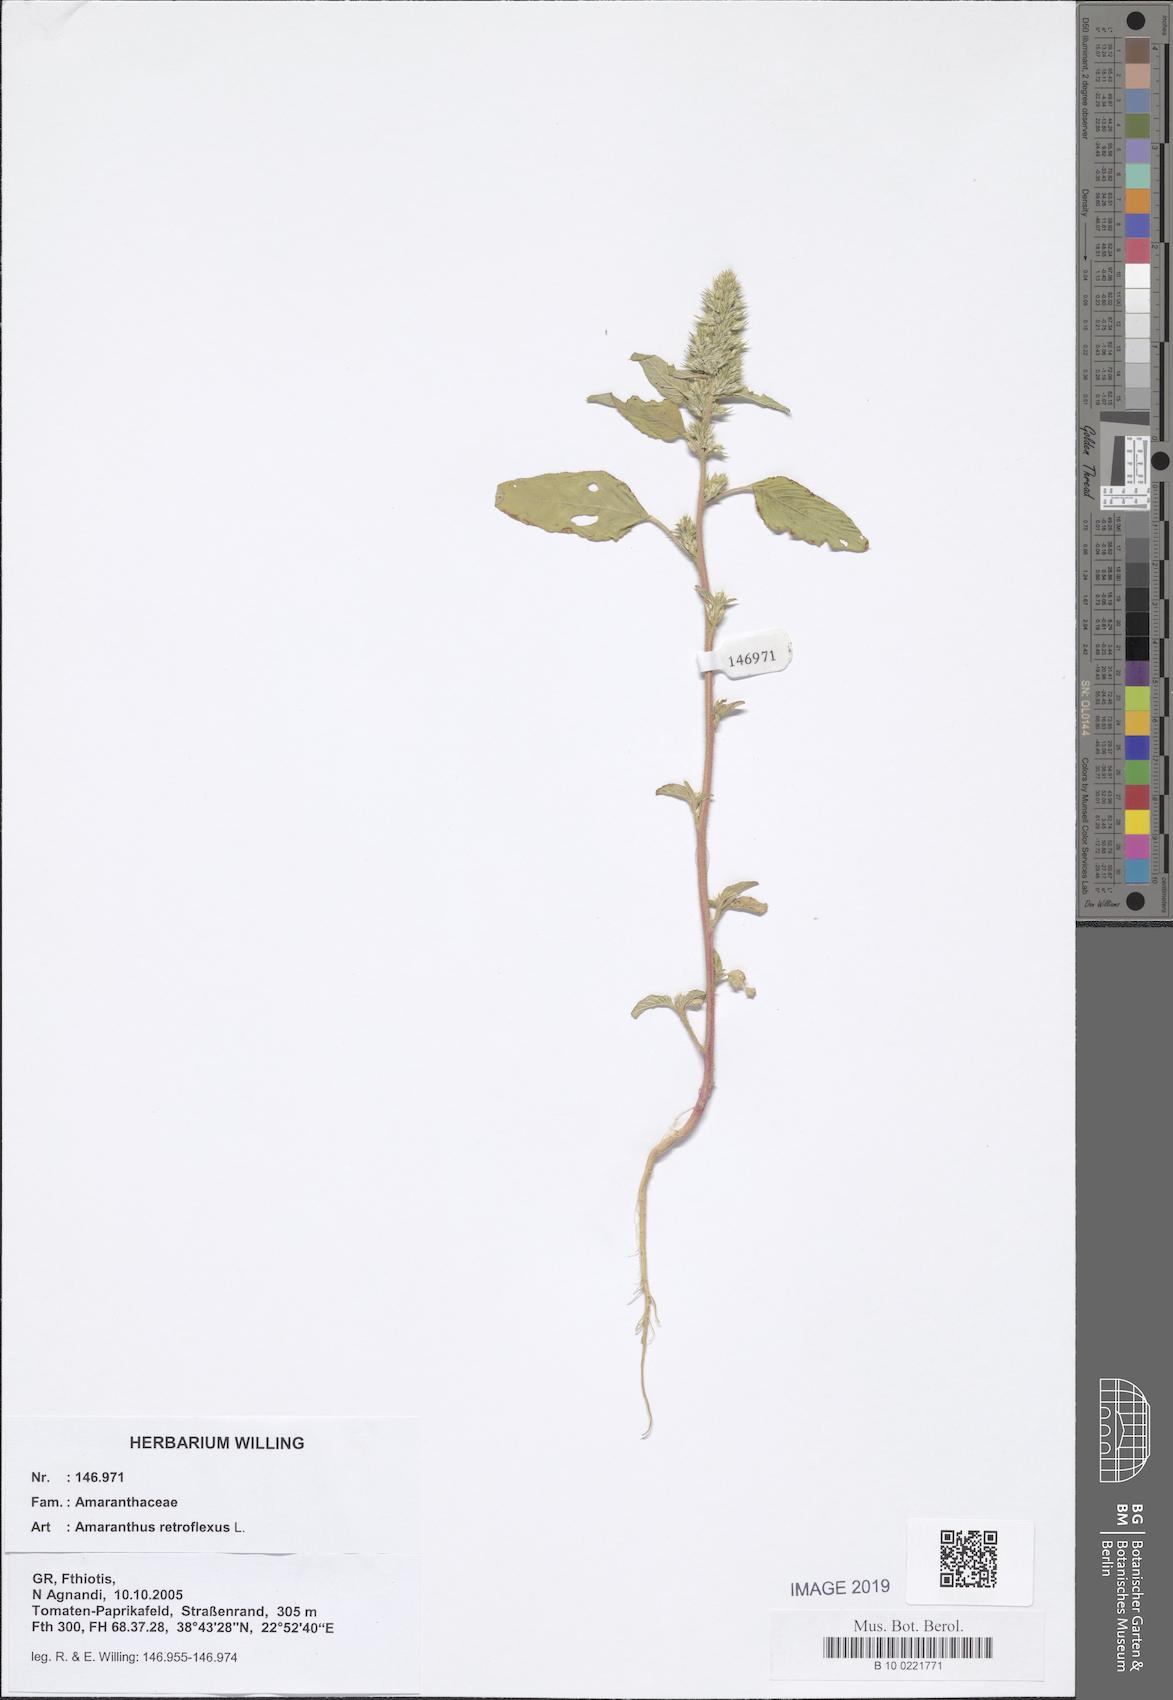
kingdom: Plantae
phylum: Tracheophyta
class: Magnoliopsida
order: Caryophyllales
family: Amaranthaceae
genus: Amaranthus
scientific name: Amaranthus retroflexus
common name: Redroot amaranth
